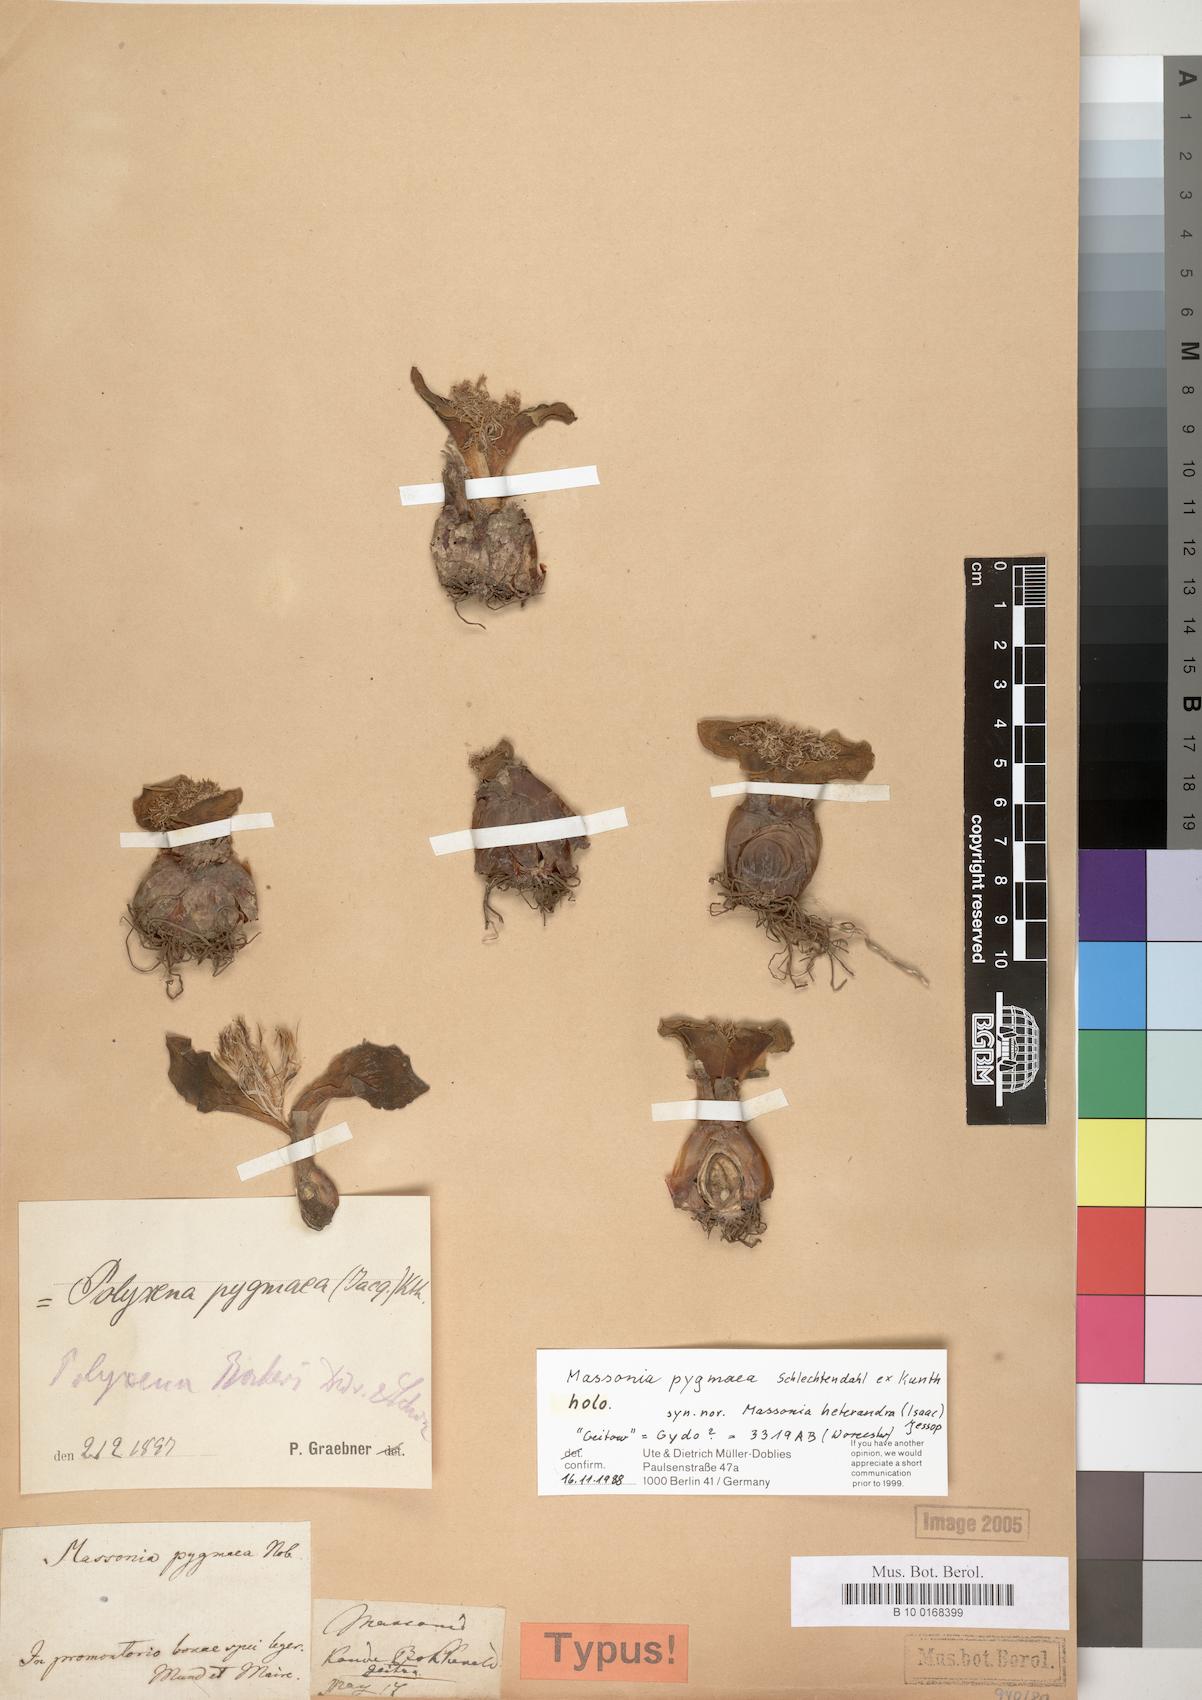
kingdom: Plantae
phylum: Tracheophyta
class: Liliopsida
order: Asparagales
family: Asparagaceae
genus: Massonia
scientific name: Massonia pygmaea
